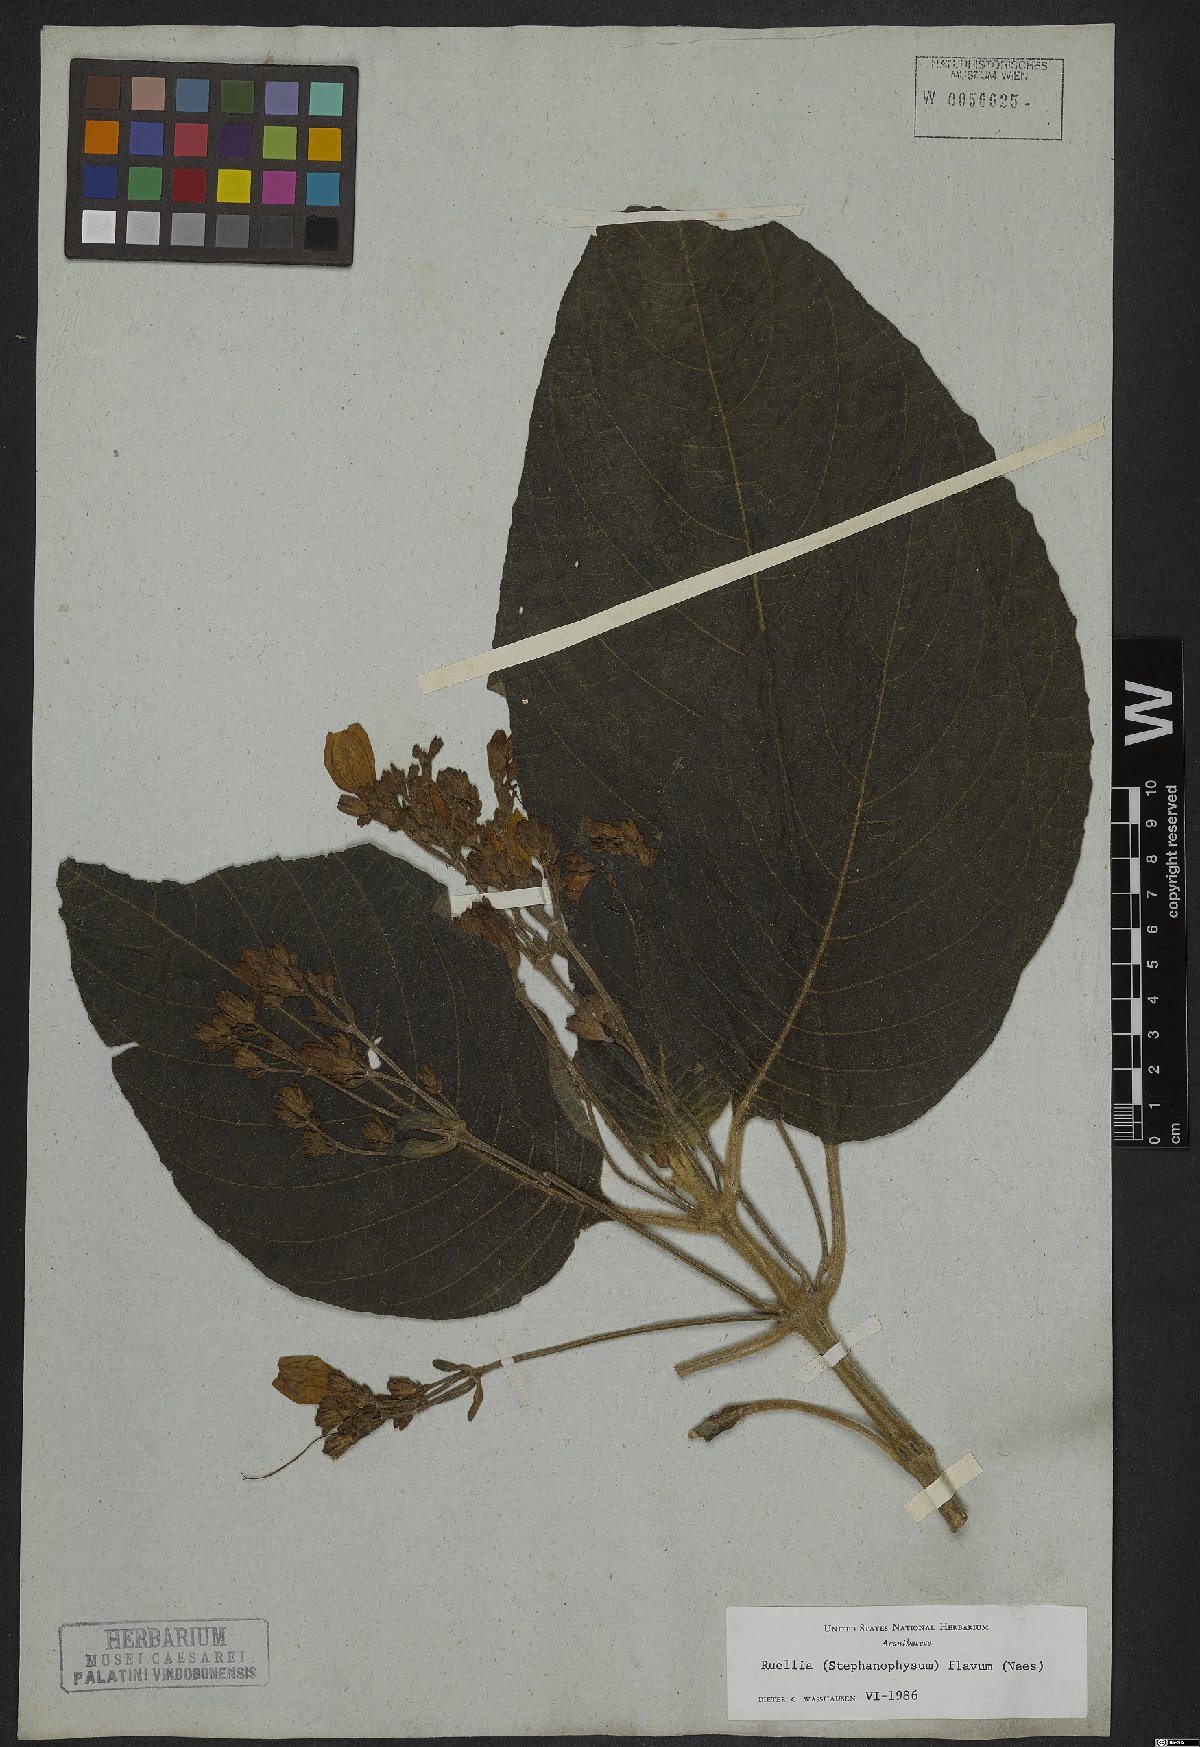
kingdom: Plantae
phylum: Tracheophyta
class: Magnoliopsida
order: Lamiales
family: Acanthaceae
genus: Ruellia
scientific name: Ruellia ochroleuca
